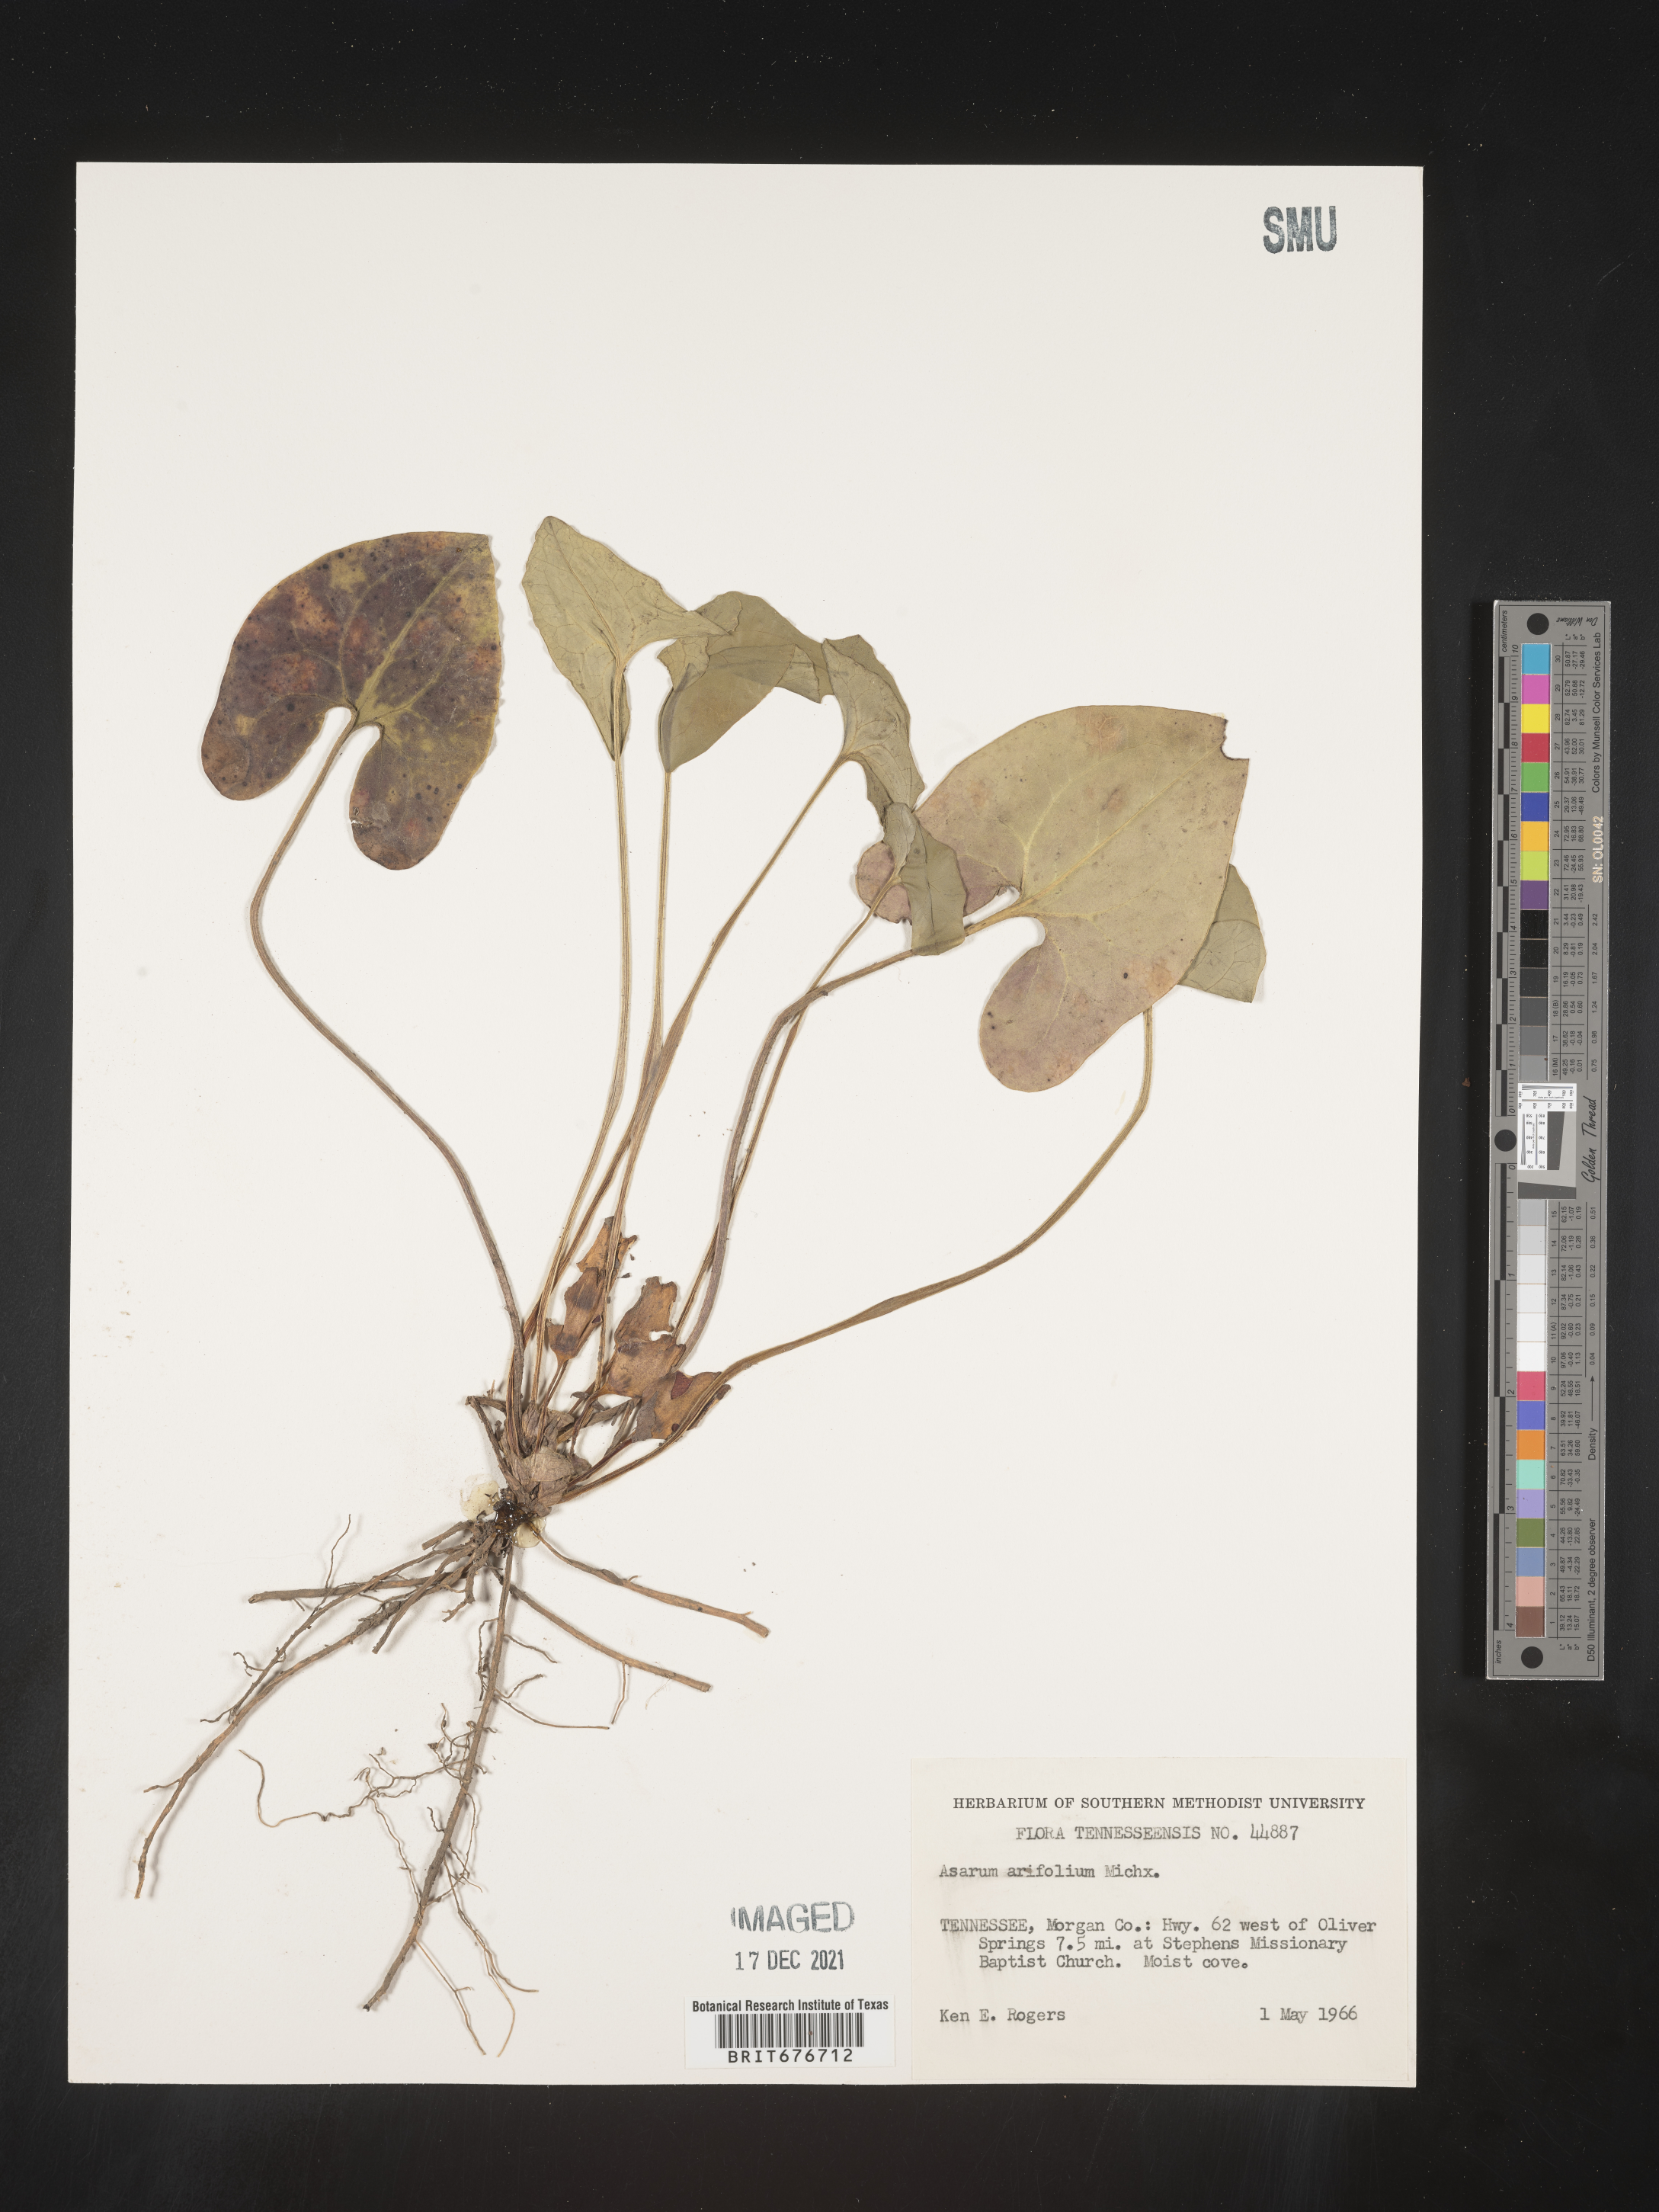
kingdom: Plantae
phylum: Tracheophyta
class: Magnoliopsida
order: Piperales
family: Aristolochiaceae
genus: Hexastylis
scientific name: Hexastylis arifolia
